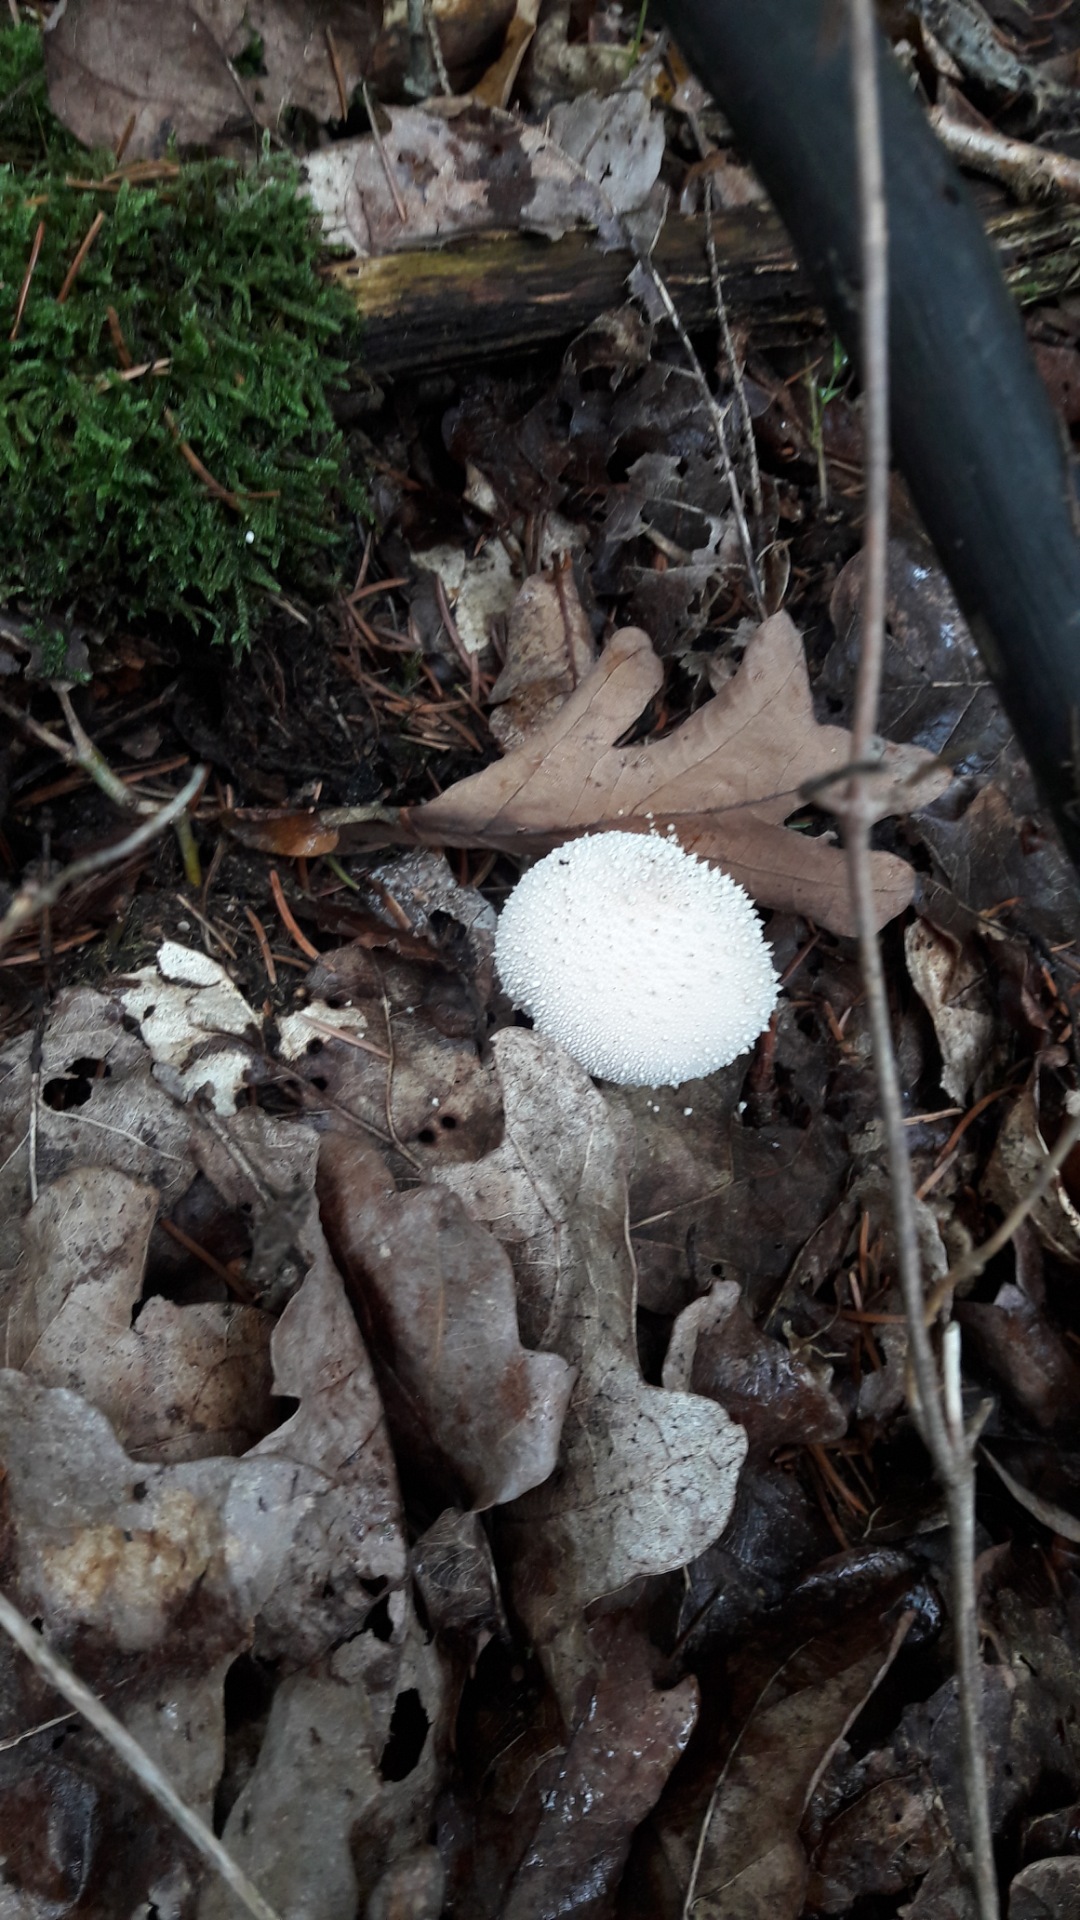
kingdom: Fungi
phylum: Basidiomycota
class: Agaricomycetes
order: Agaricales
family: Lycoperdaceae
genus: Lycoperdon
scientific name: Lycoperdon perlatum
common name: krystal-støvbold
